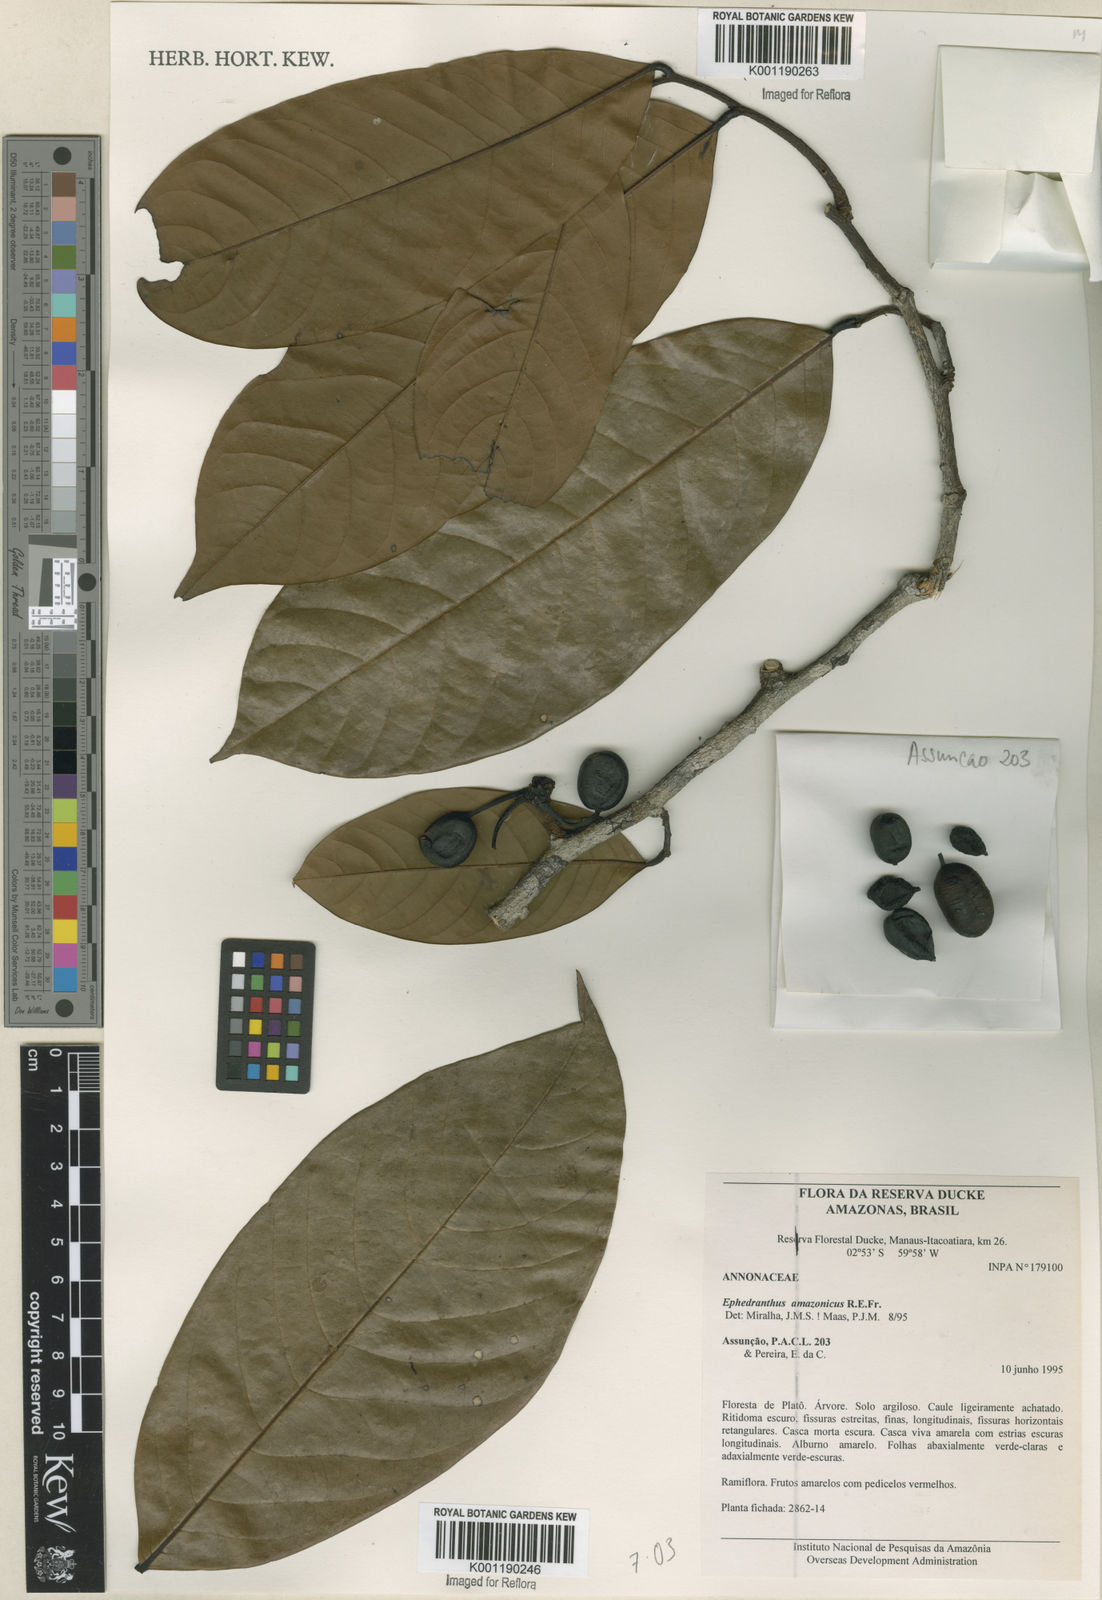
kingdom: Plantae
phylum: Tracheophyta
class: Magnoliopsida
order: Magnoliales
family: Annonaceae
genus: Ephedranthus
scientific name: Ephedranthus amazonicus
